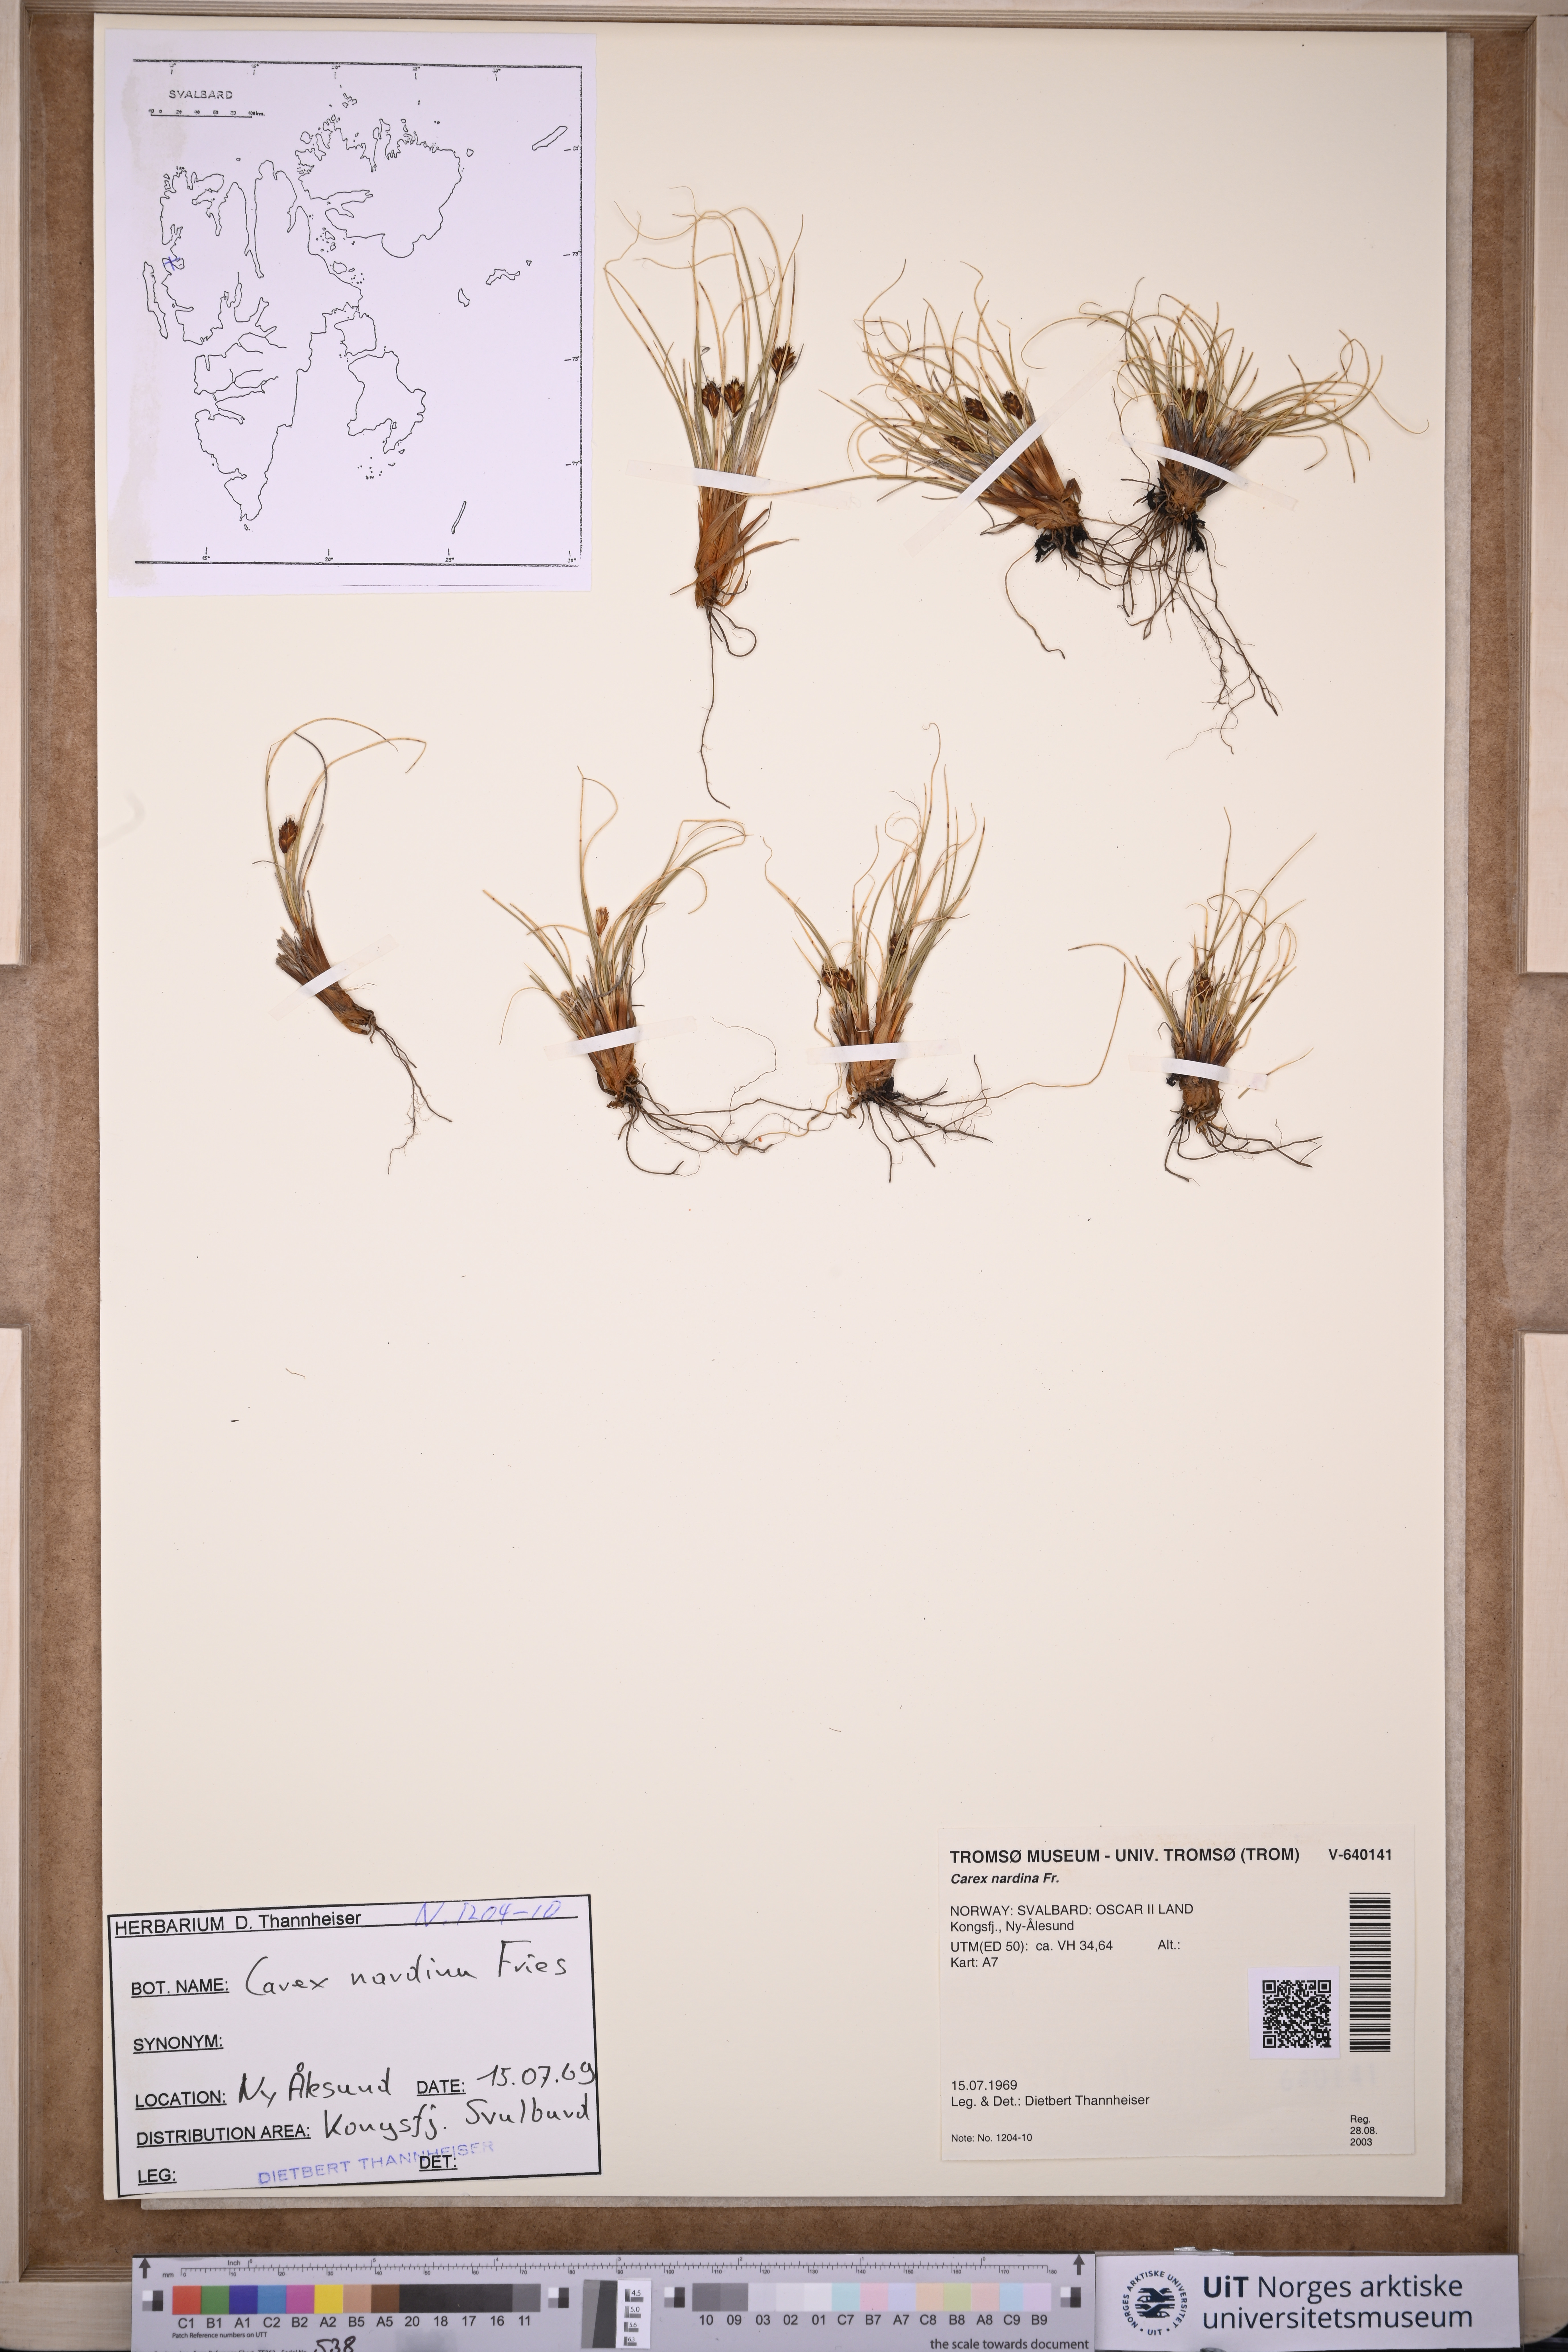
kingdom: Plantae
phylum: Tracheophyta
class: Liliopsida
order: Poales
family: Cyperaceae
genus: Carex
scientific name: Carex nardina
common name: Nard sedge
